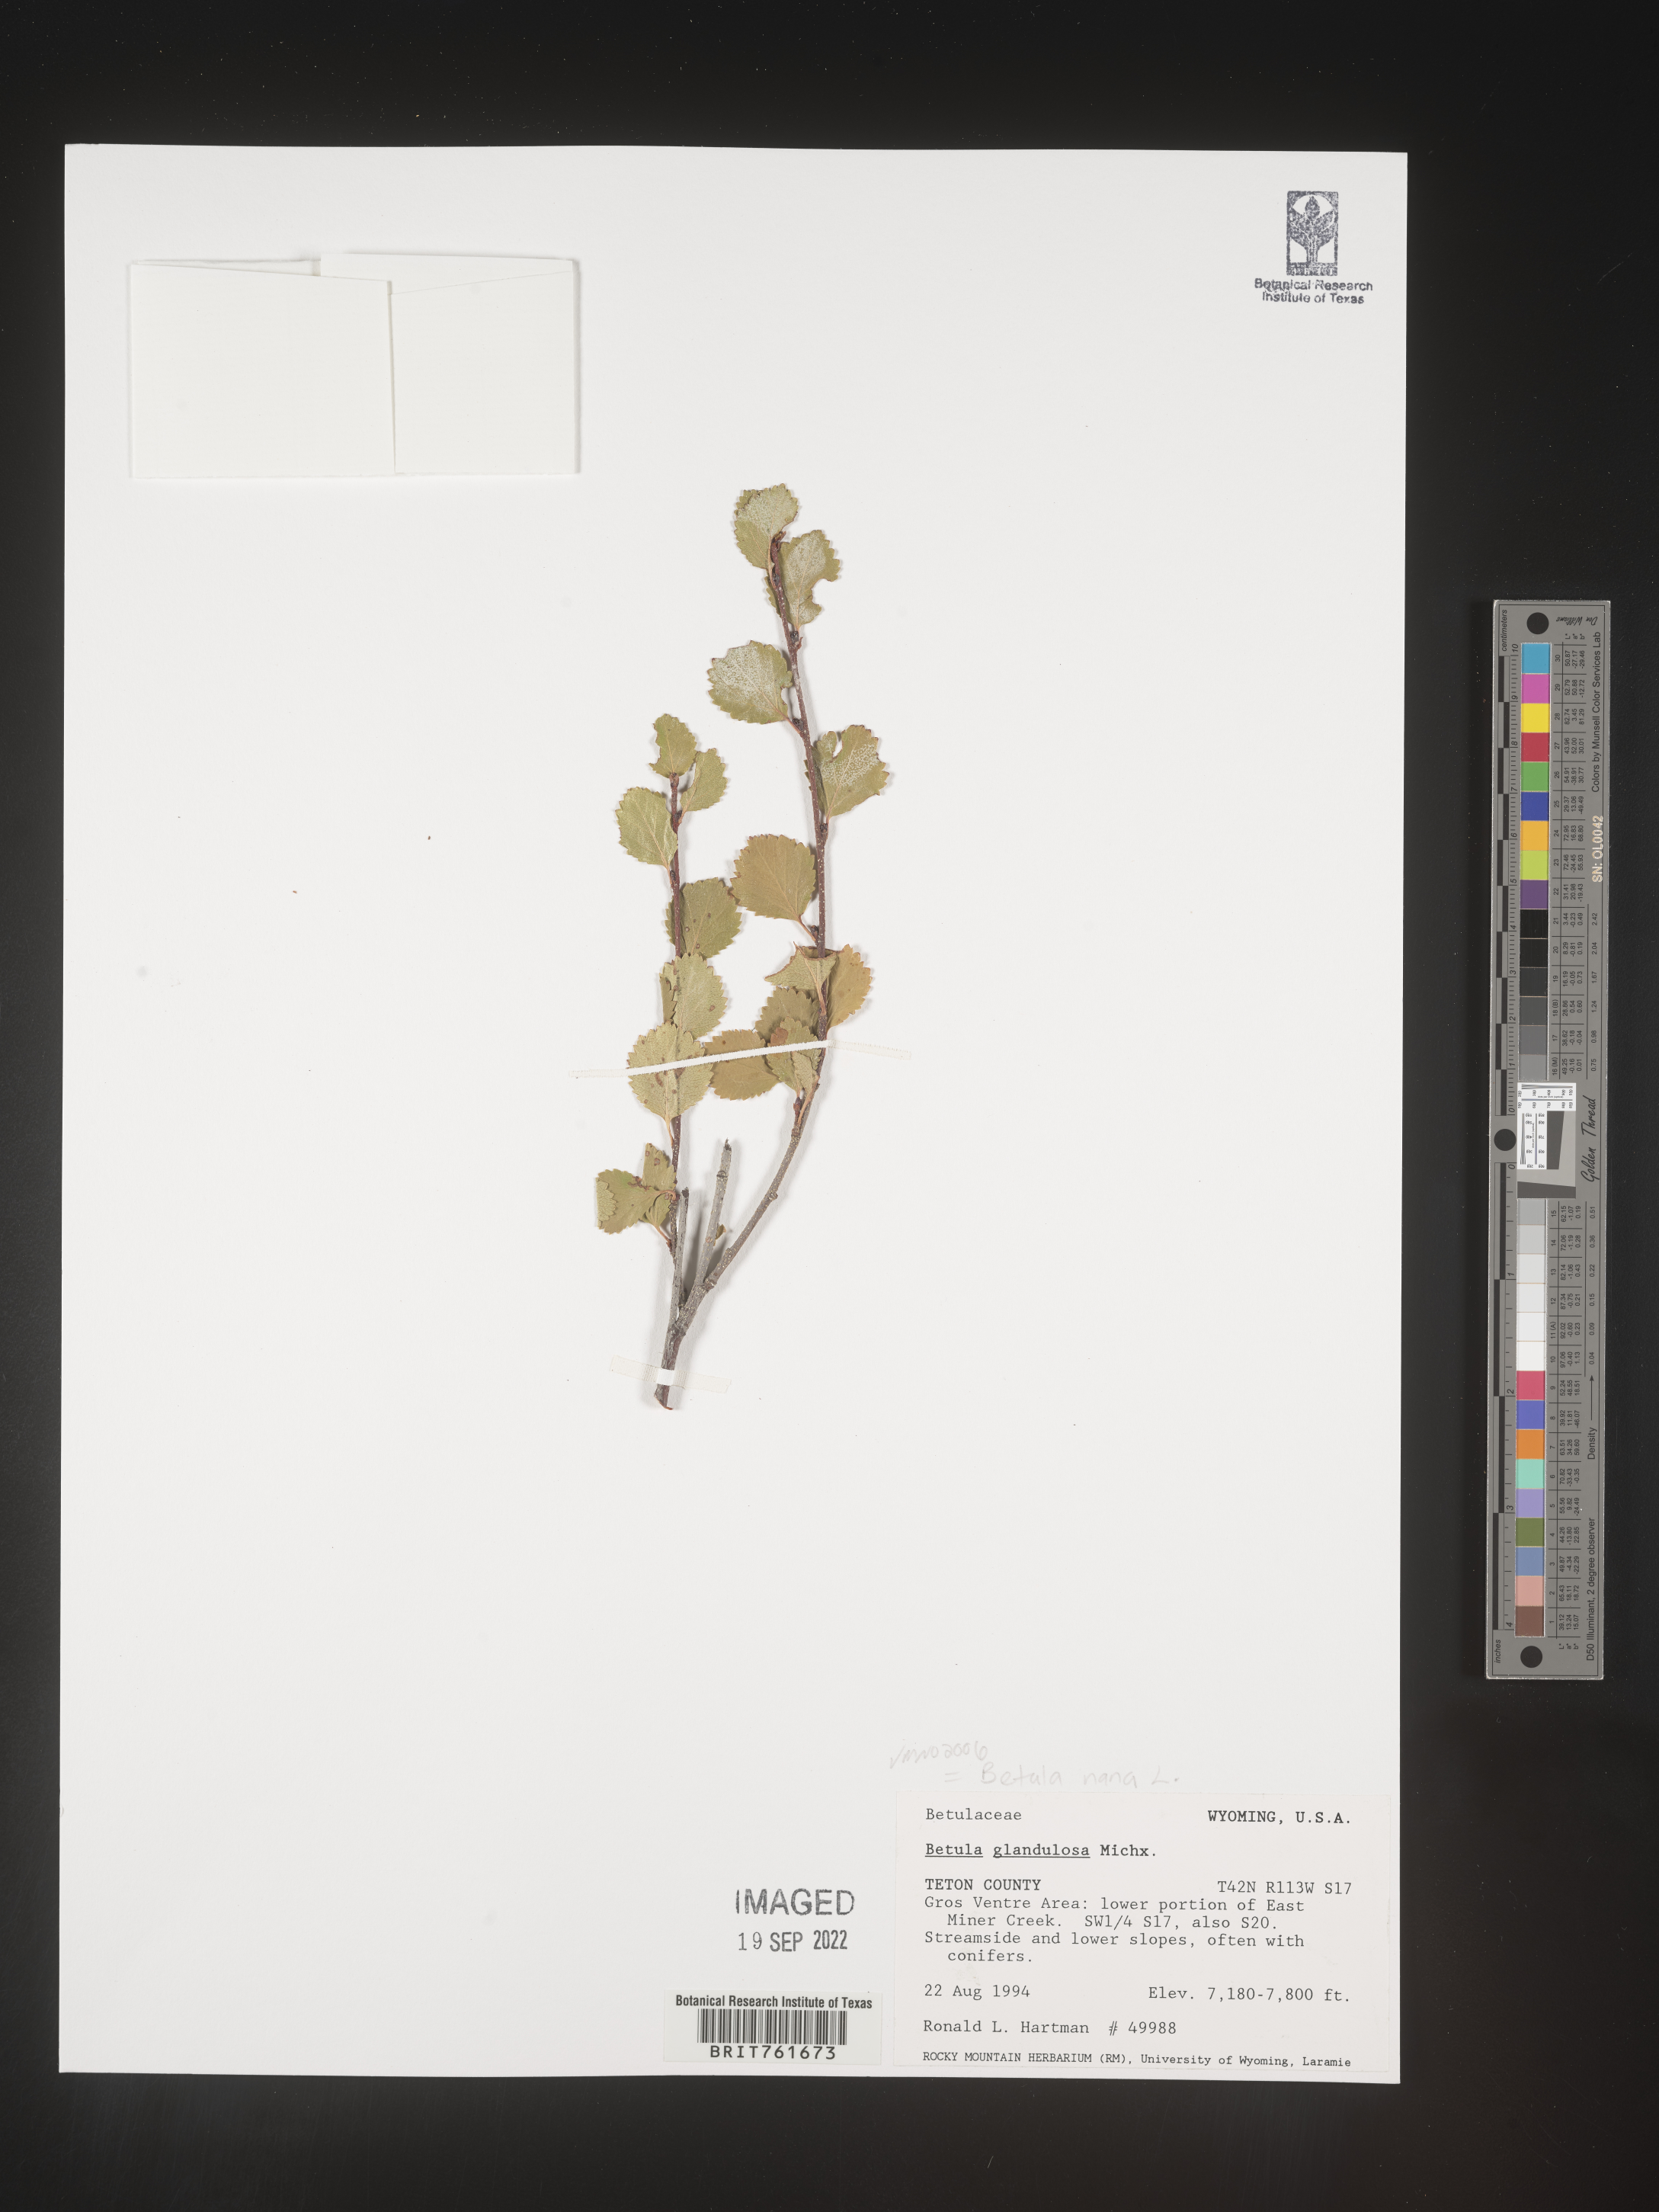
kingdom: Plantae
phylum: Tracheophyta
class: Magnoliopsida
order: Fagales
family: Betulaceae
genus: Betula
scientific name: Betula
